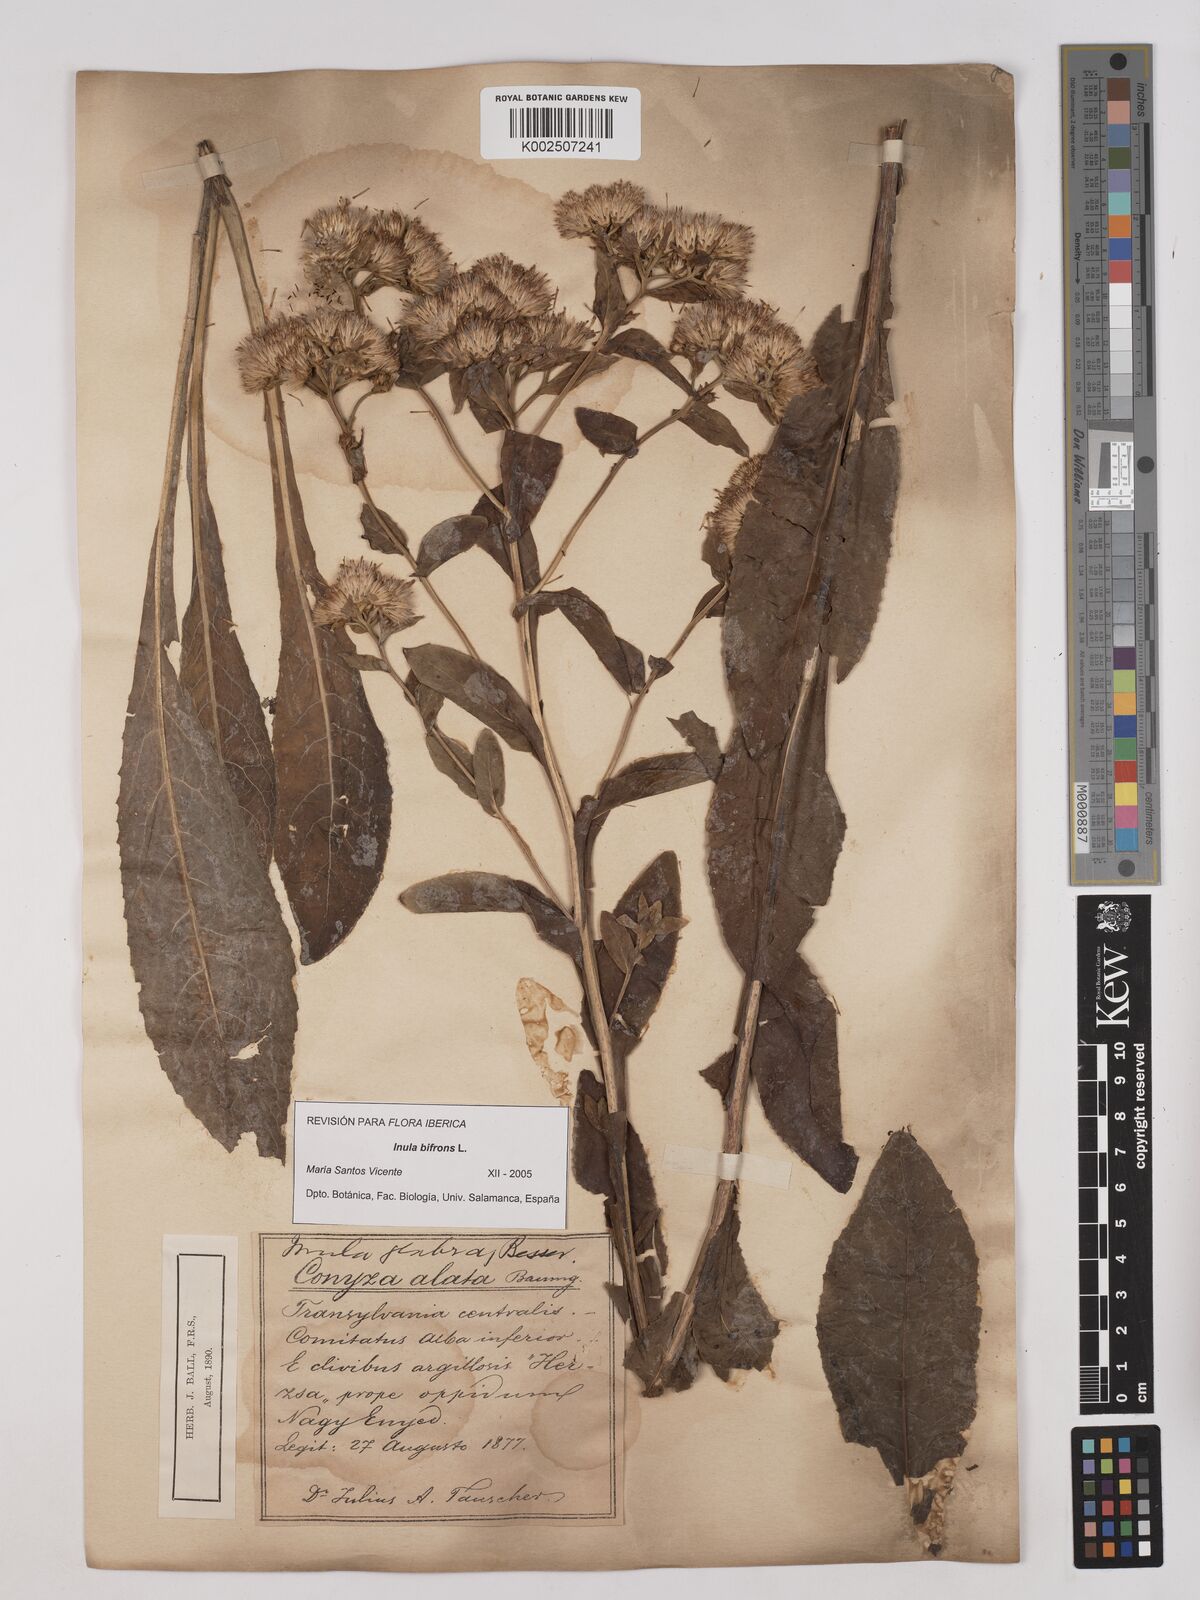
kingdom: Plantae
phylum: Tracheophyta
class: Magnoliopsida
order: Asterales
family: Asteraceae
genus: Pentanema
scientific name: Pentanema bifrons
